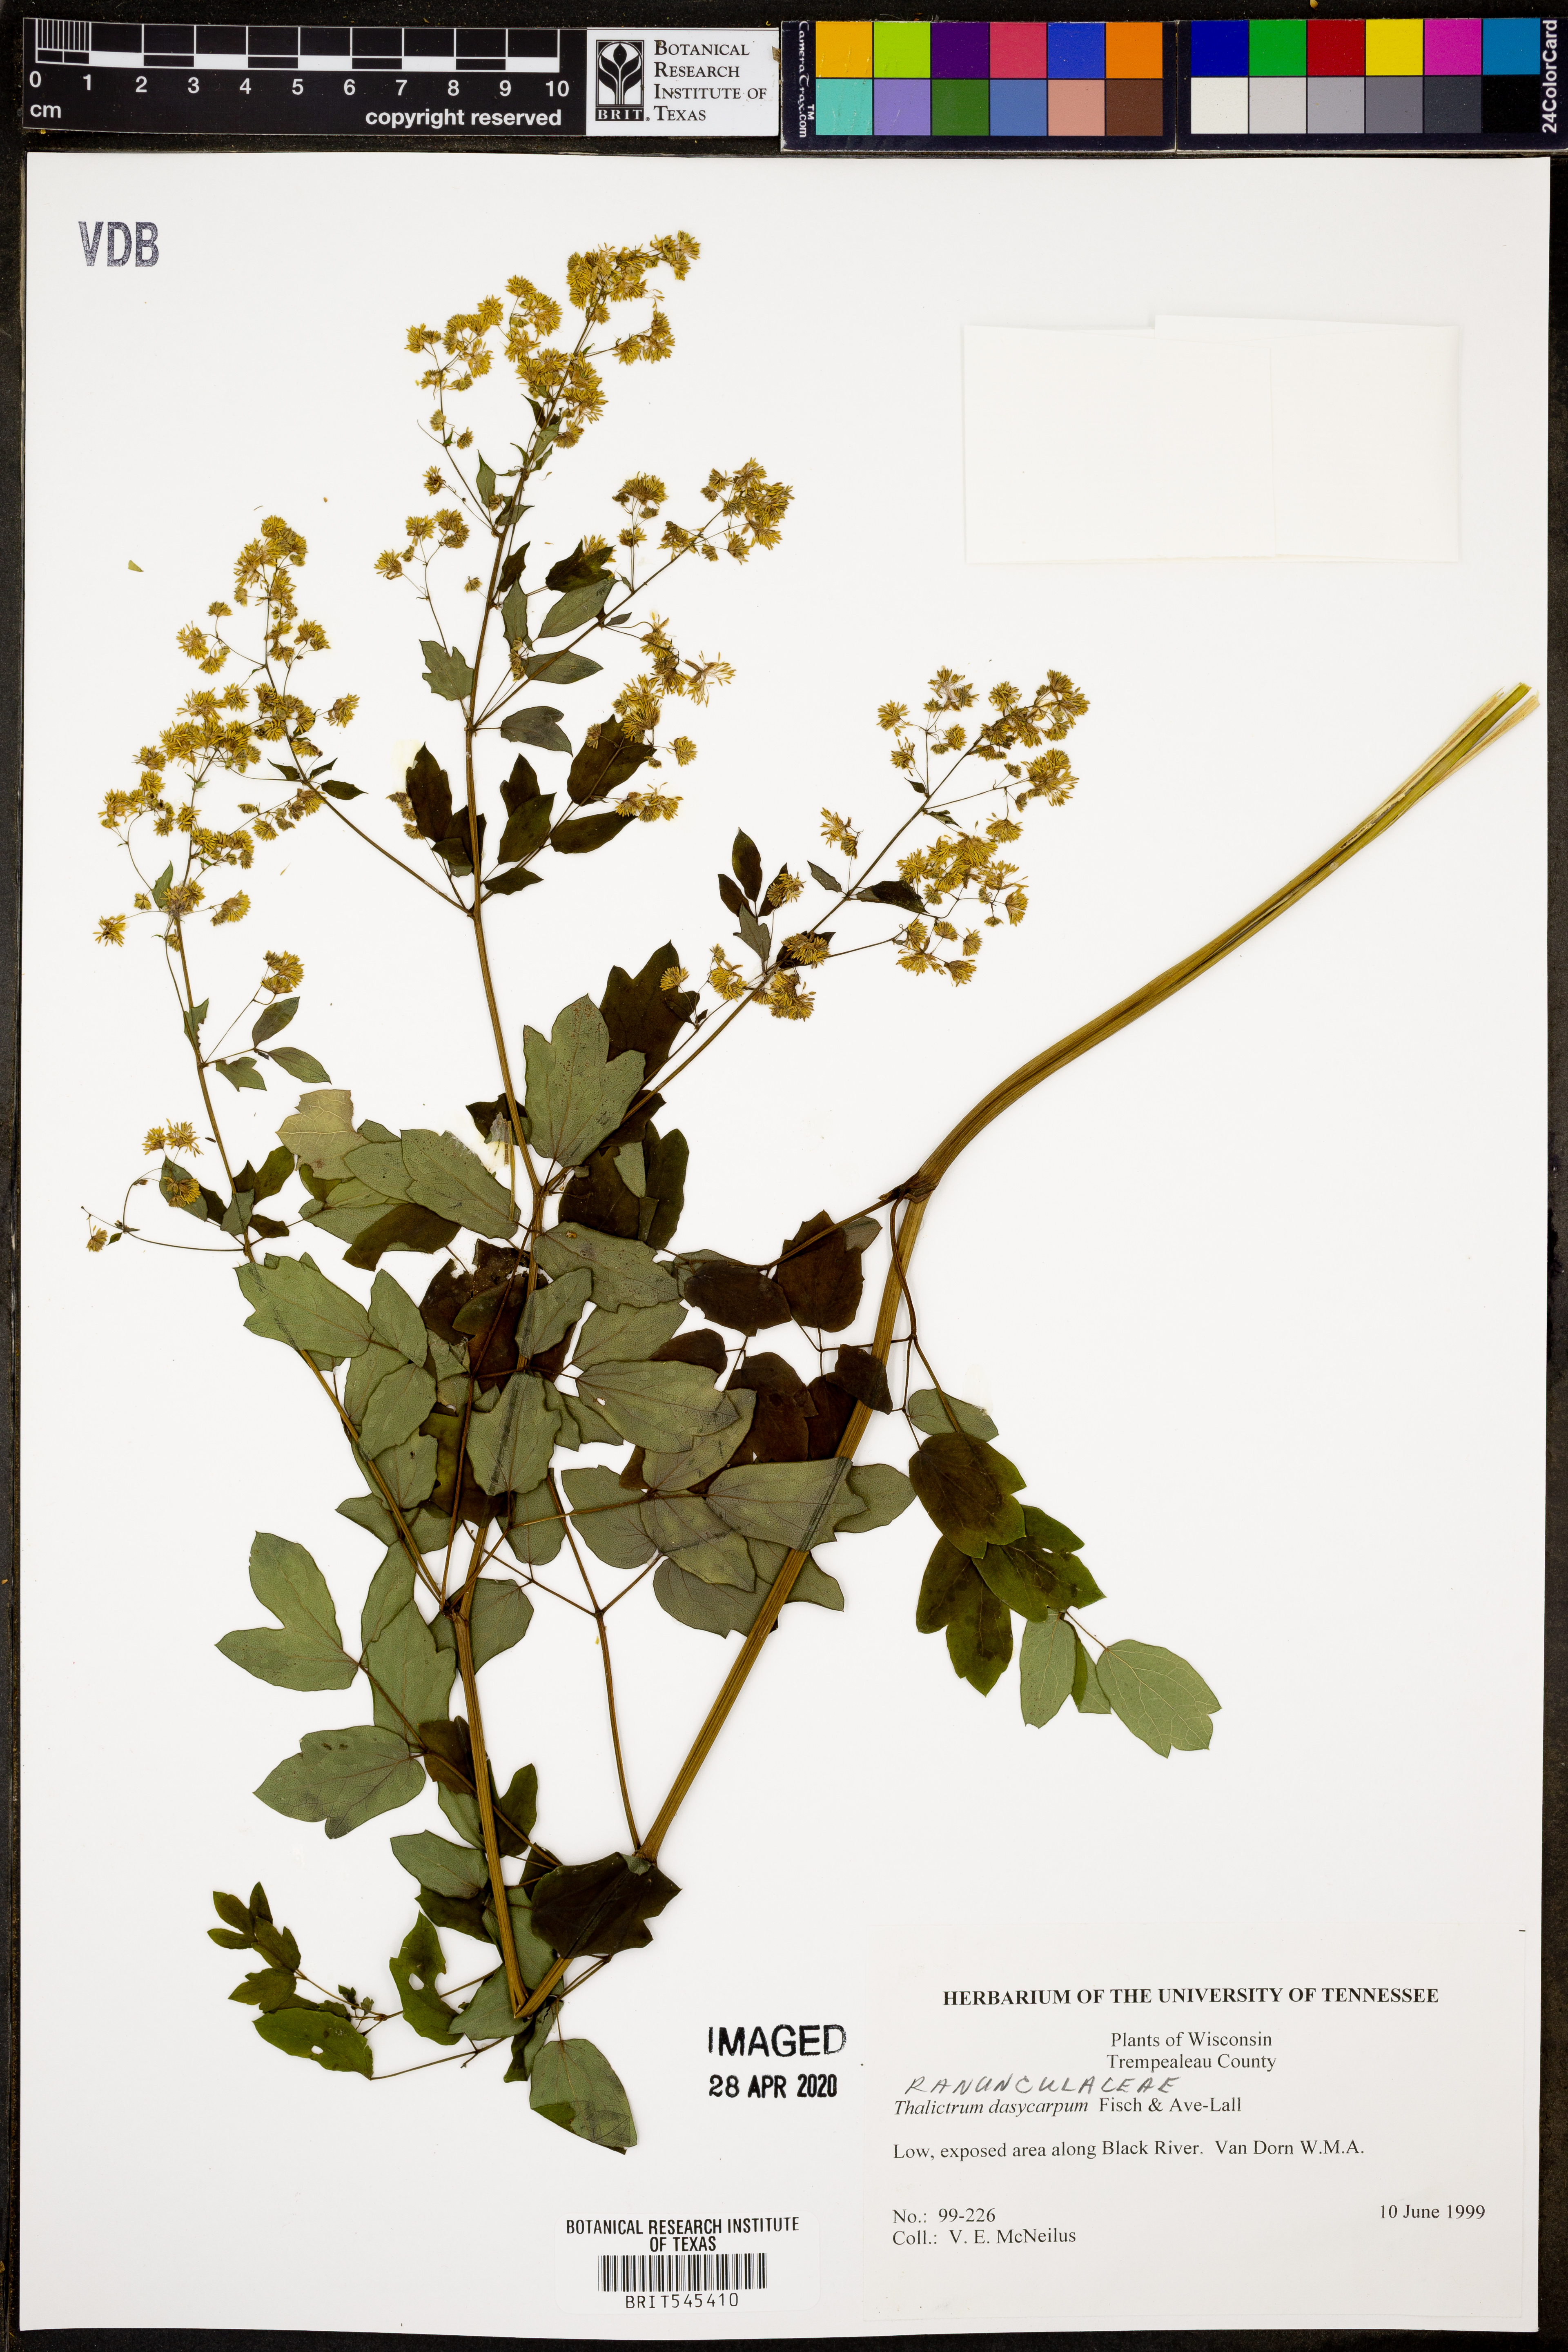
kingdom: Plantae
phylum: Tracheophyta
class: Magnoliopsida
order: Ranunculales
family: Ranunculaceae
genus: Thalictrum
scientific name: Thalictrum dasycarpum
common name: Purple meadow-rue
